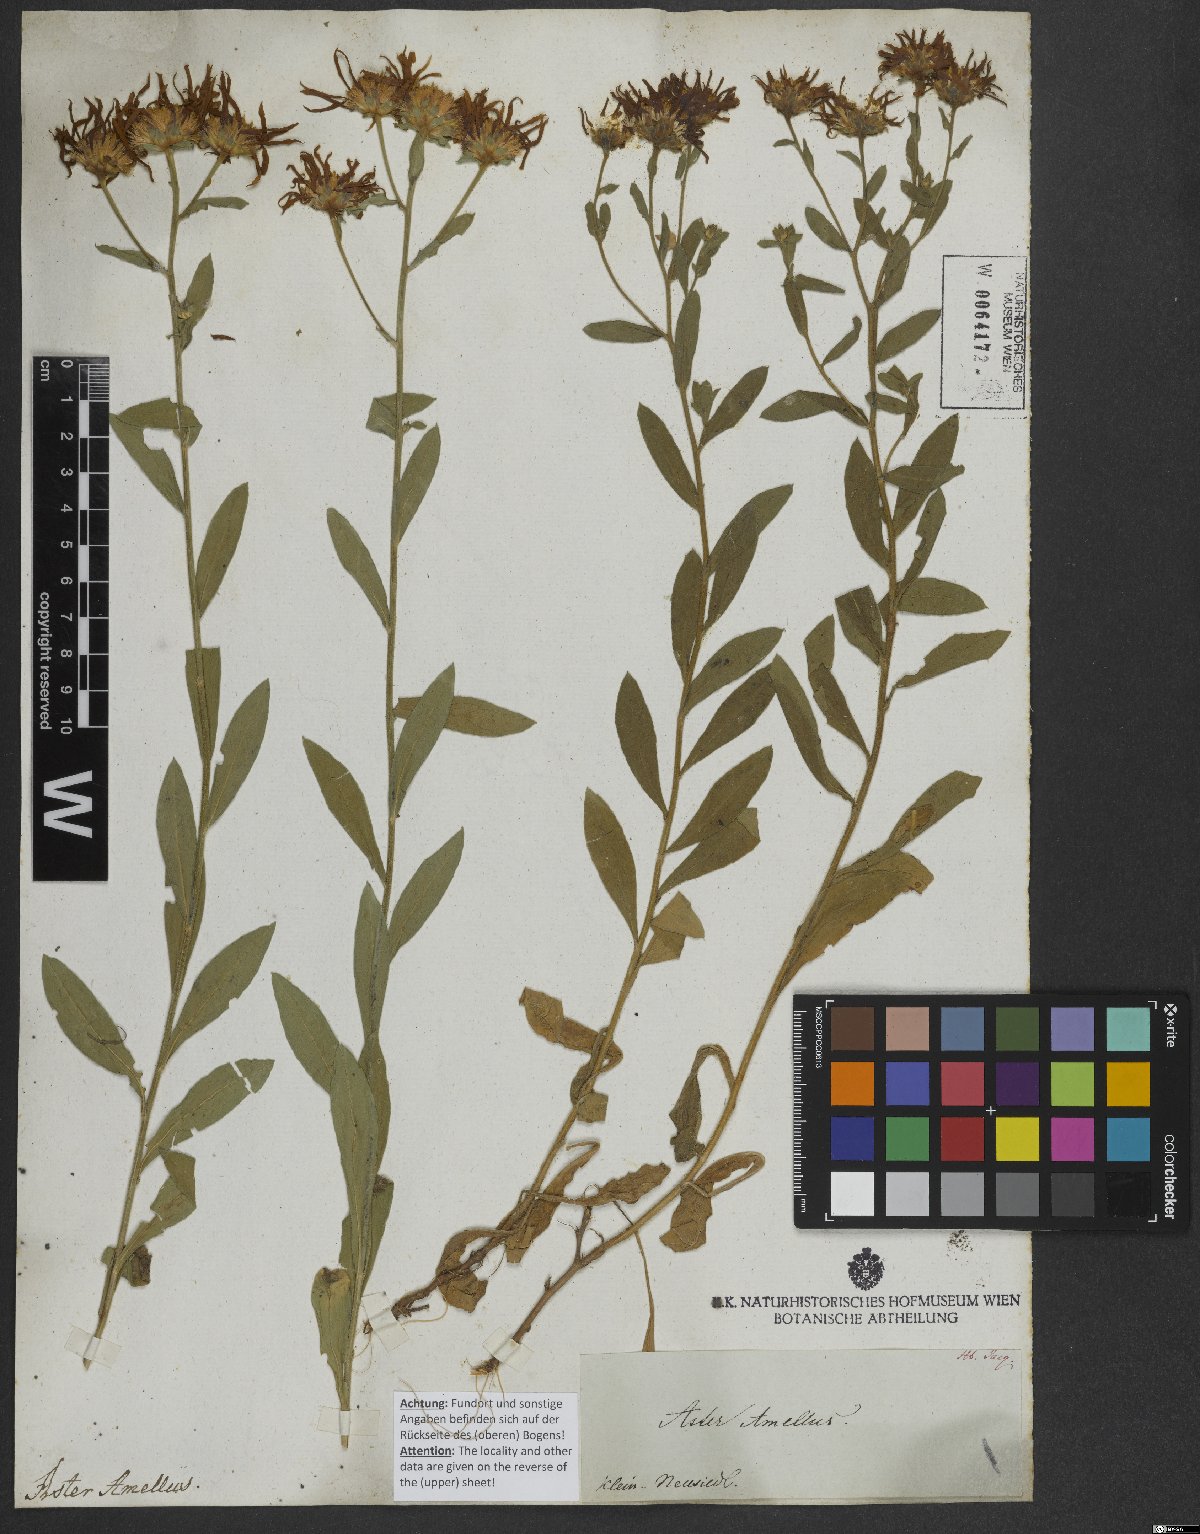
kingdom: Plantae
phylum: Tracheophyta
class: Magnoliopsida
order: Asterales
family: Asteraceae
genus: Aster
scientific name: Aster amellus
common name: European michaelmas daisy
